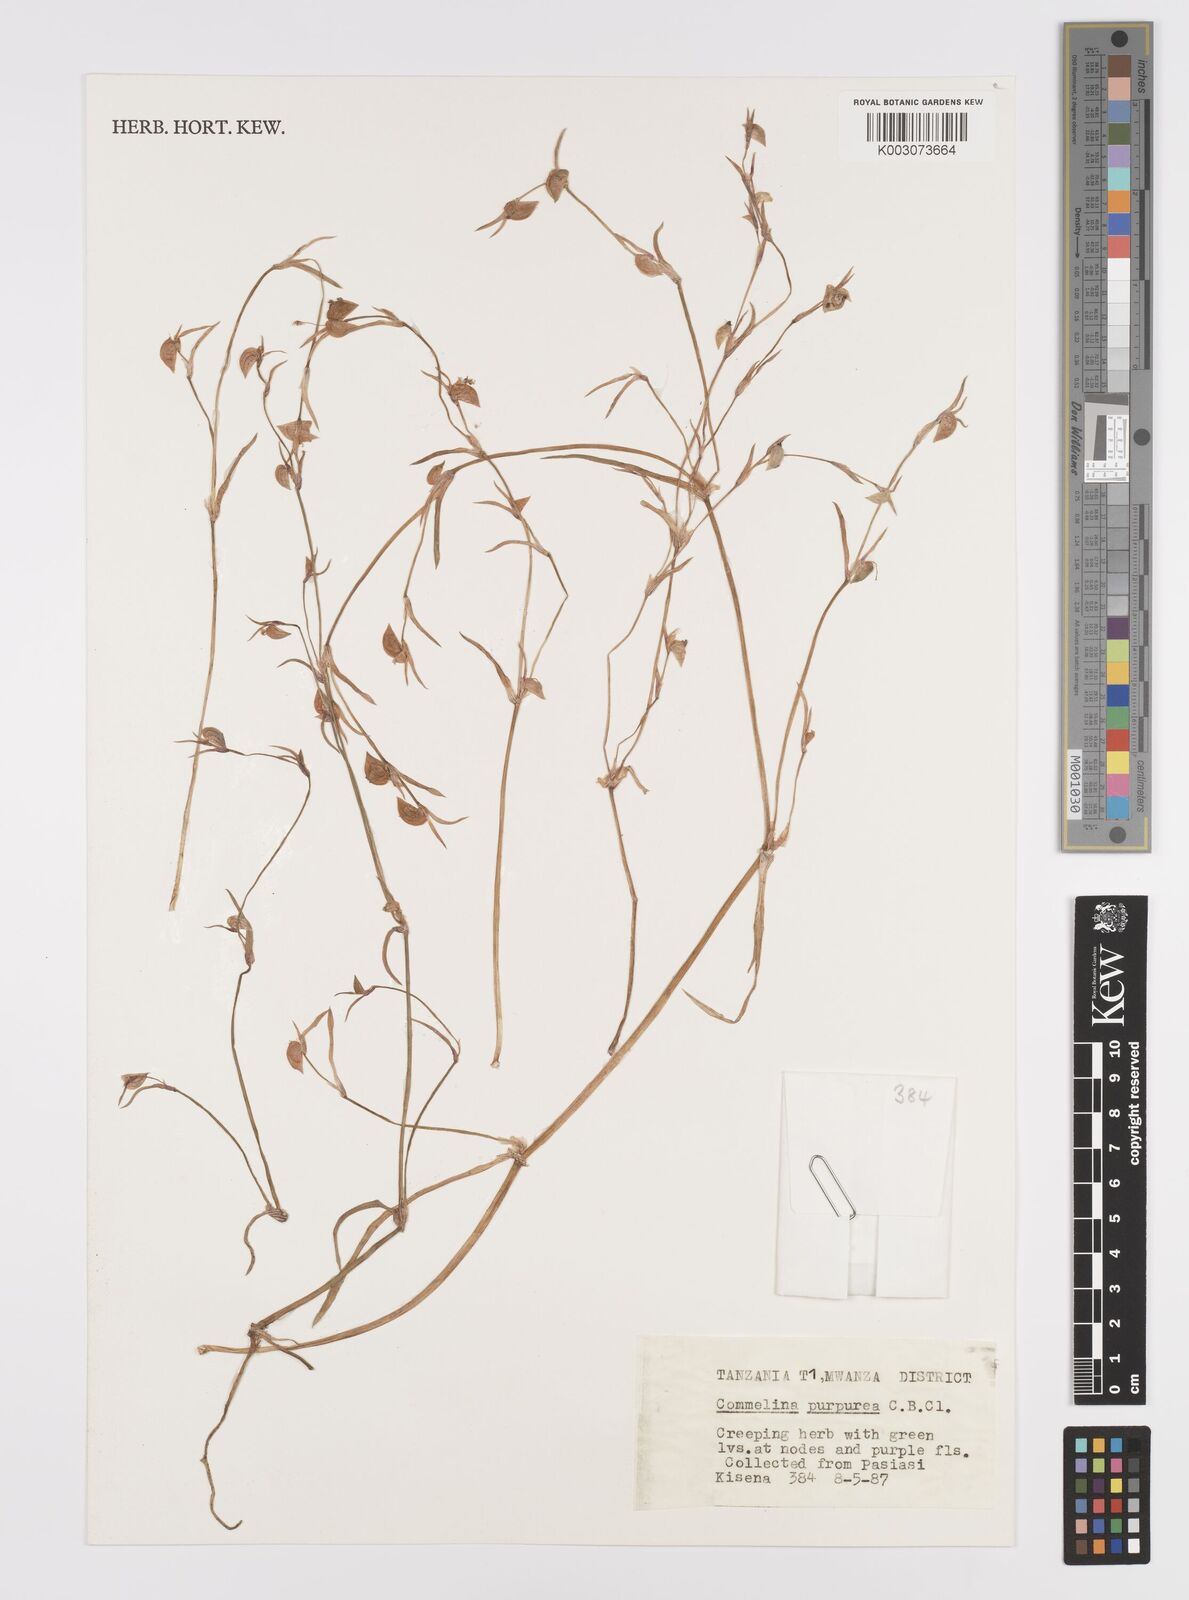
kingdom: Plantae
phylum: Tracheophyta
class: Liliopsida
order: Commelinales
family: Commelinaceae
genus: Commelina
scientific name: Commelina purpurea
